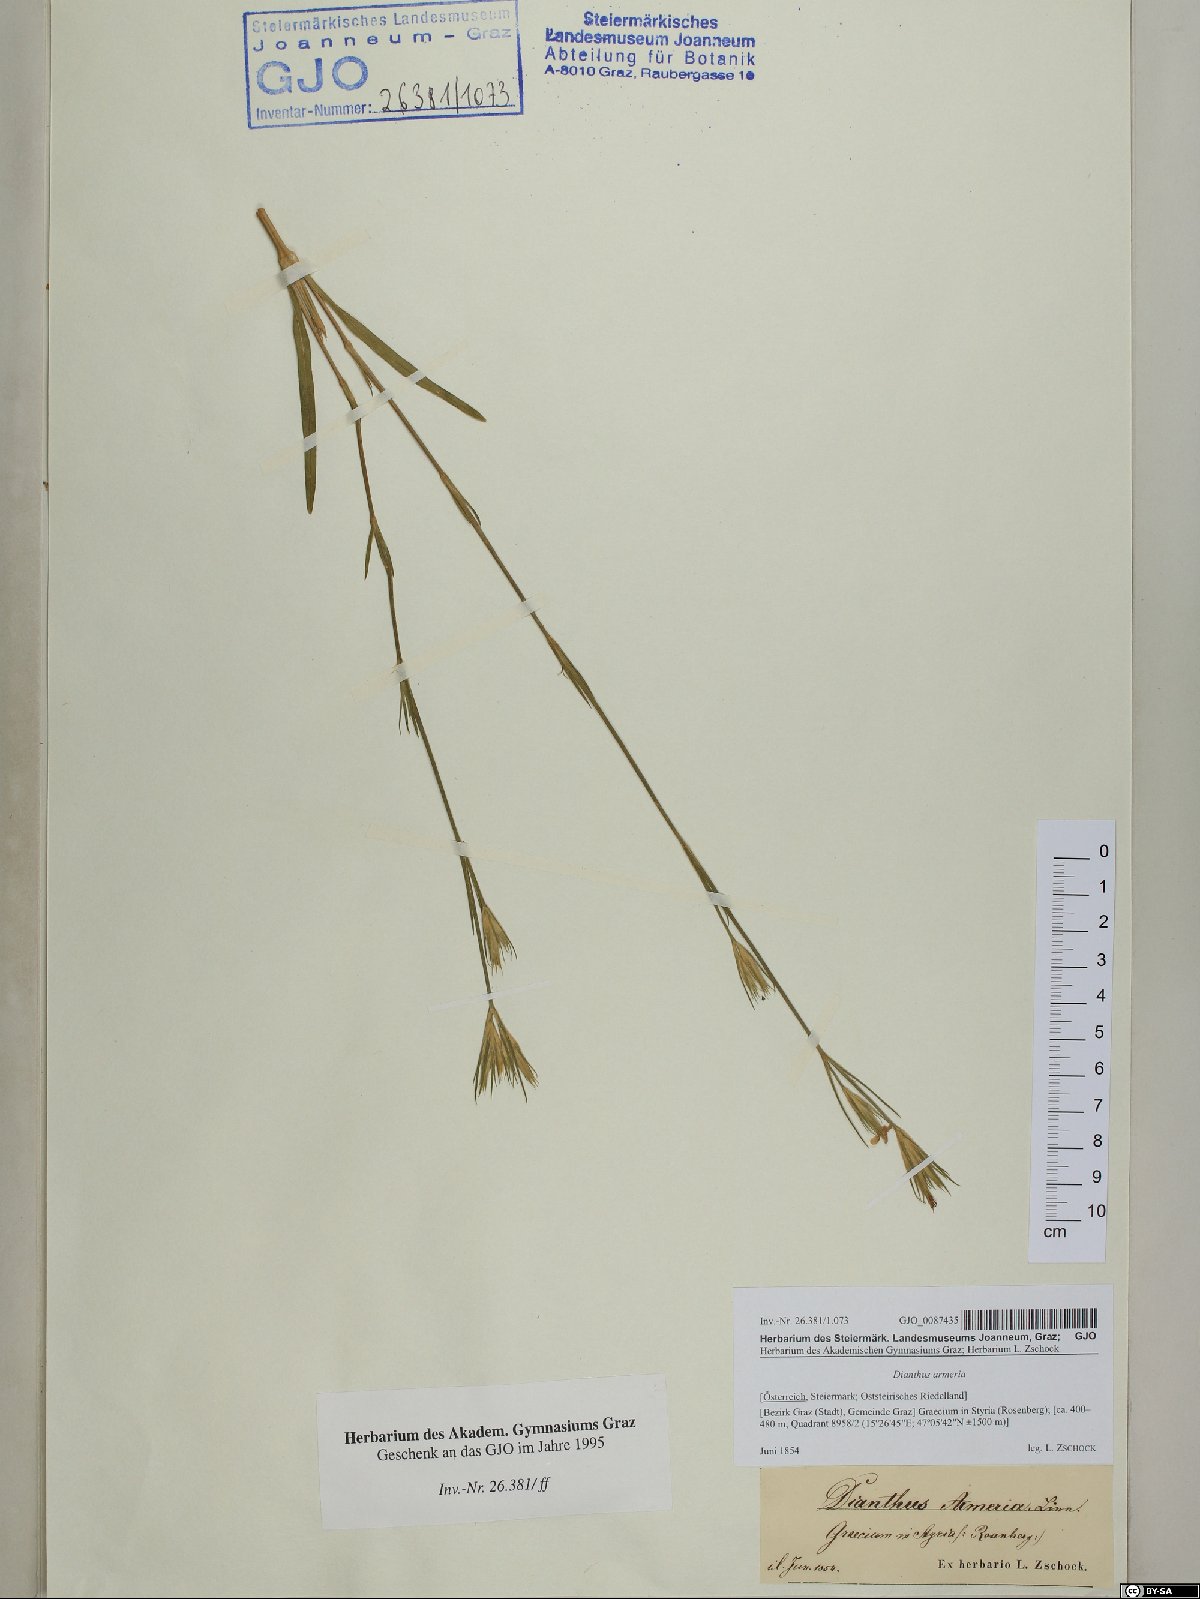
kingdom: Plantae
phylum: Tracheophyta
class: Magnoliopsida
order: Caryophyllales
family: Caryophyllaceae
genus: Dianthus
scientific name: Dianthus armeria
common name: Deptford pink
